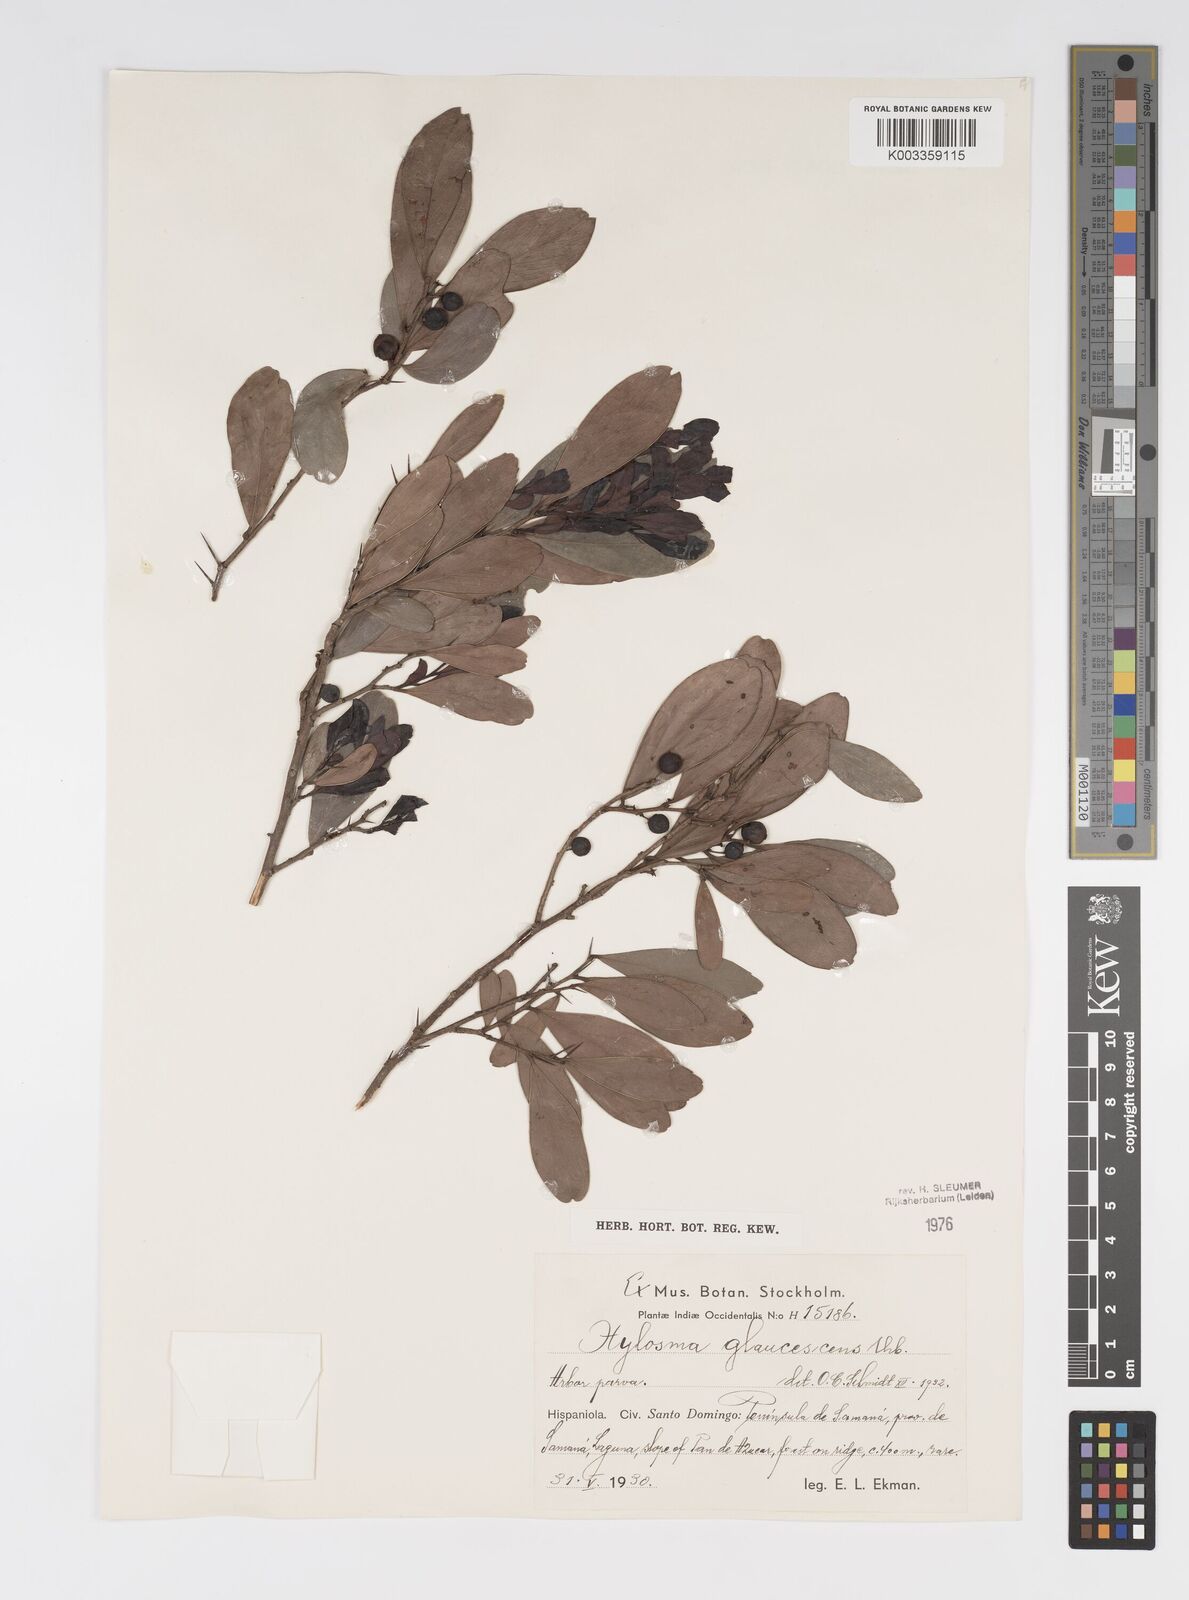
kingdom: Plantae
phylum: Tracheophyta
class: Magnoliopsida
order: Malpighiales
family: Salicaceae
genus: Xylosma
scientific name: Xylosma glaucescens
